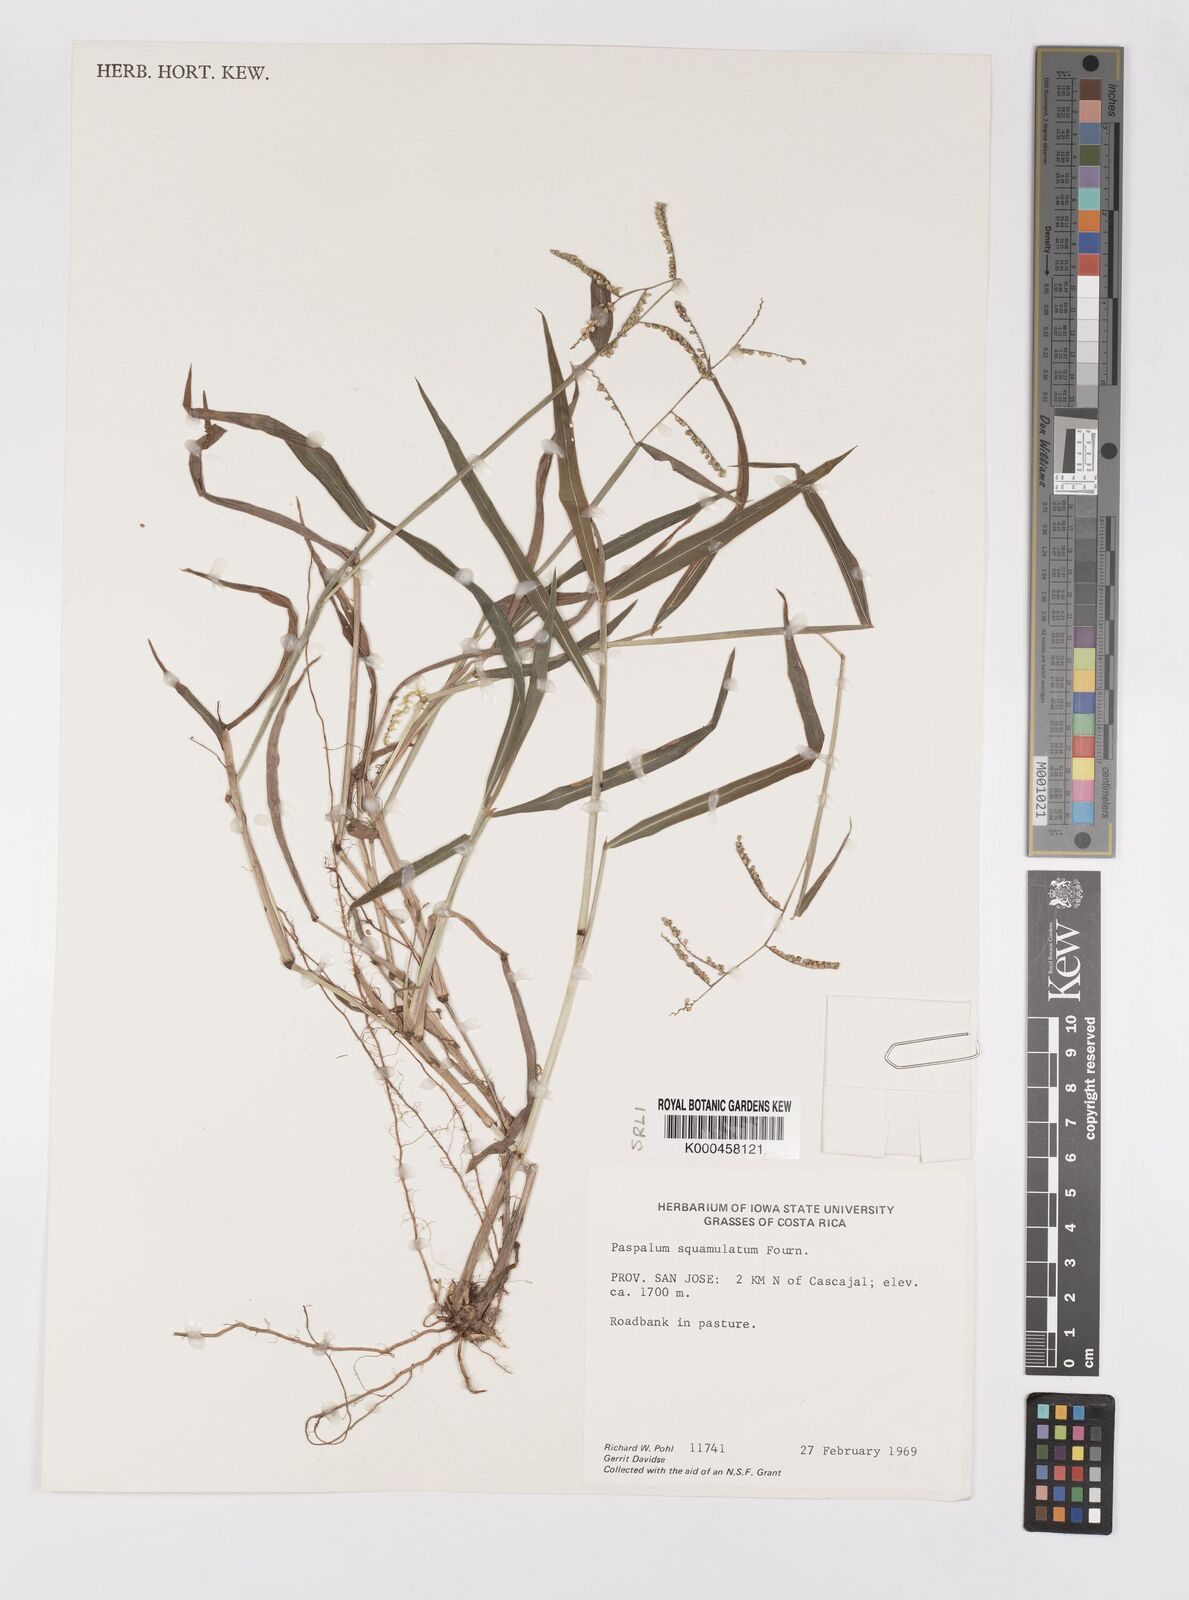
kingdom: Plantae
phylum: Tracheophyta
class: Liliopsida
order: Poales
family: Poaceae
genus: Paspalum
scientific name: Paspalum
